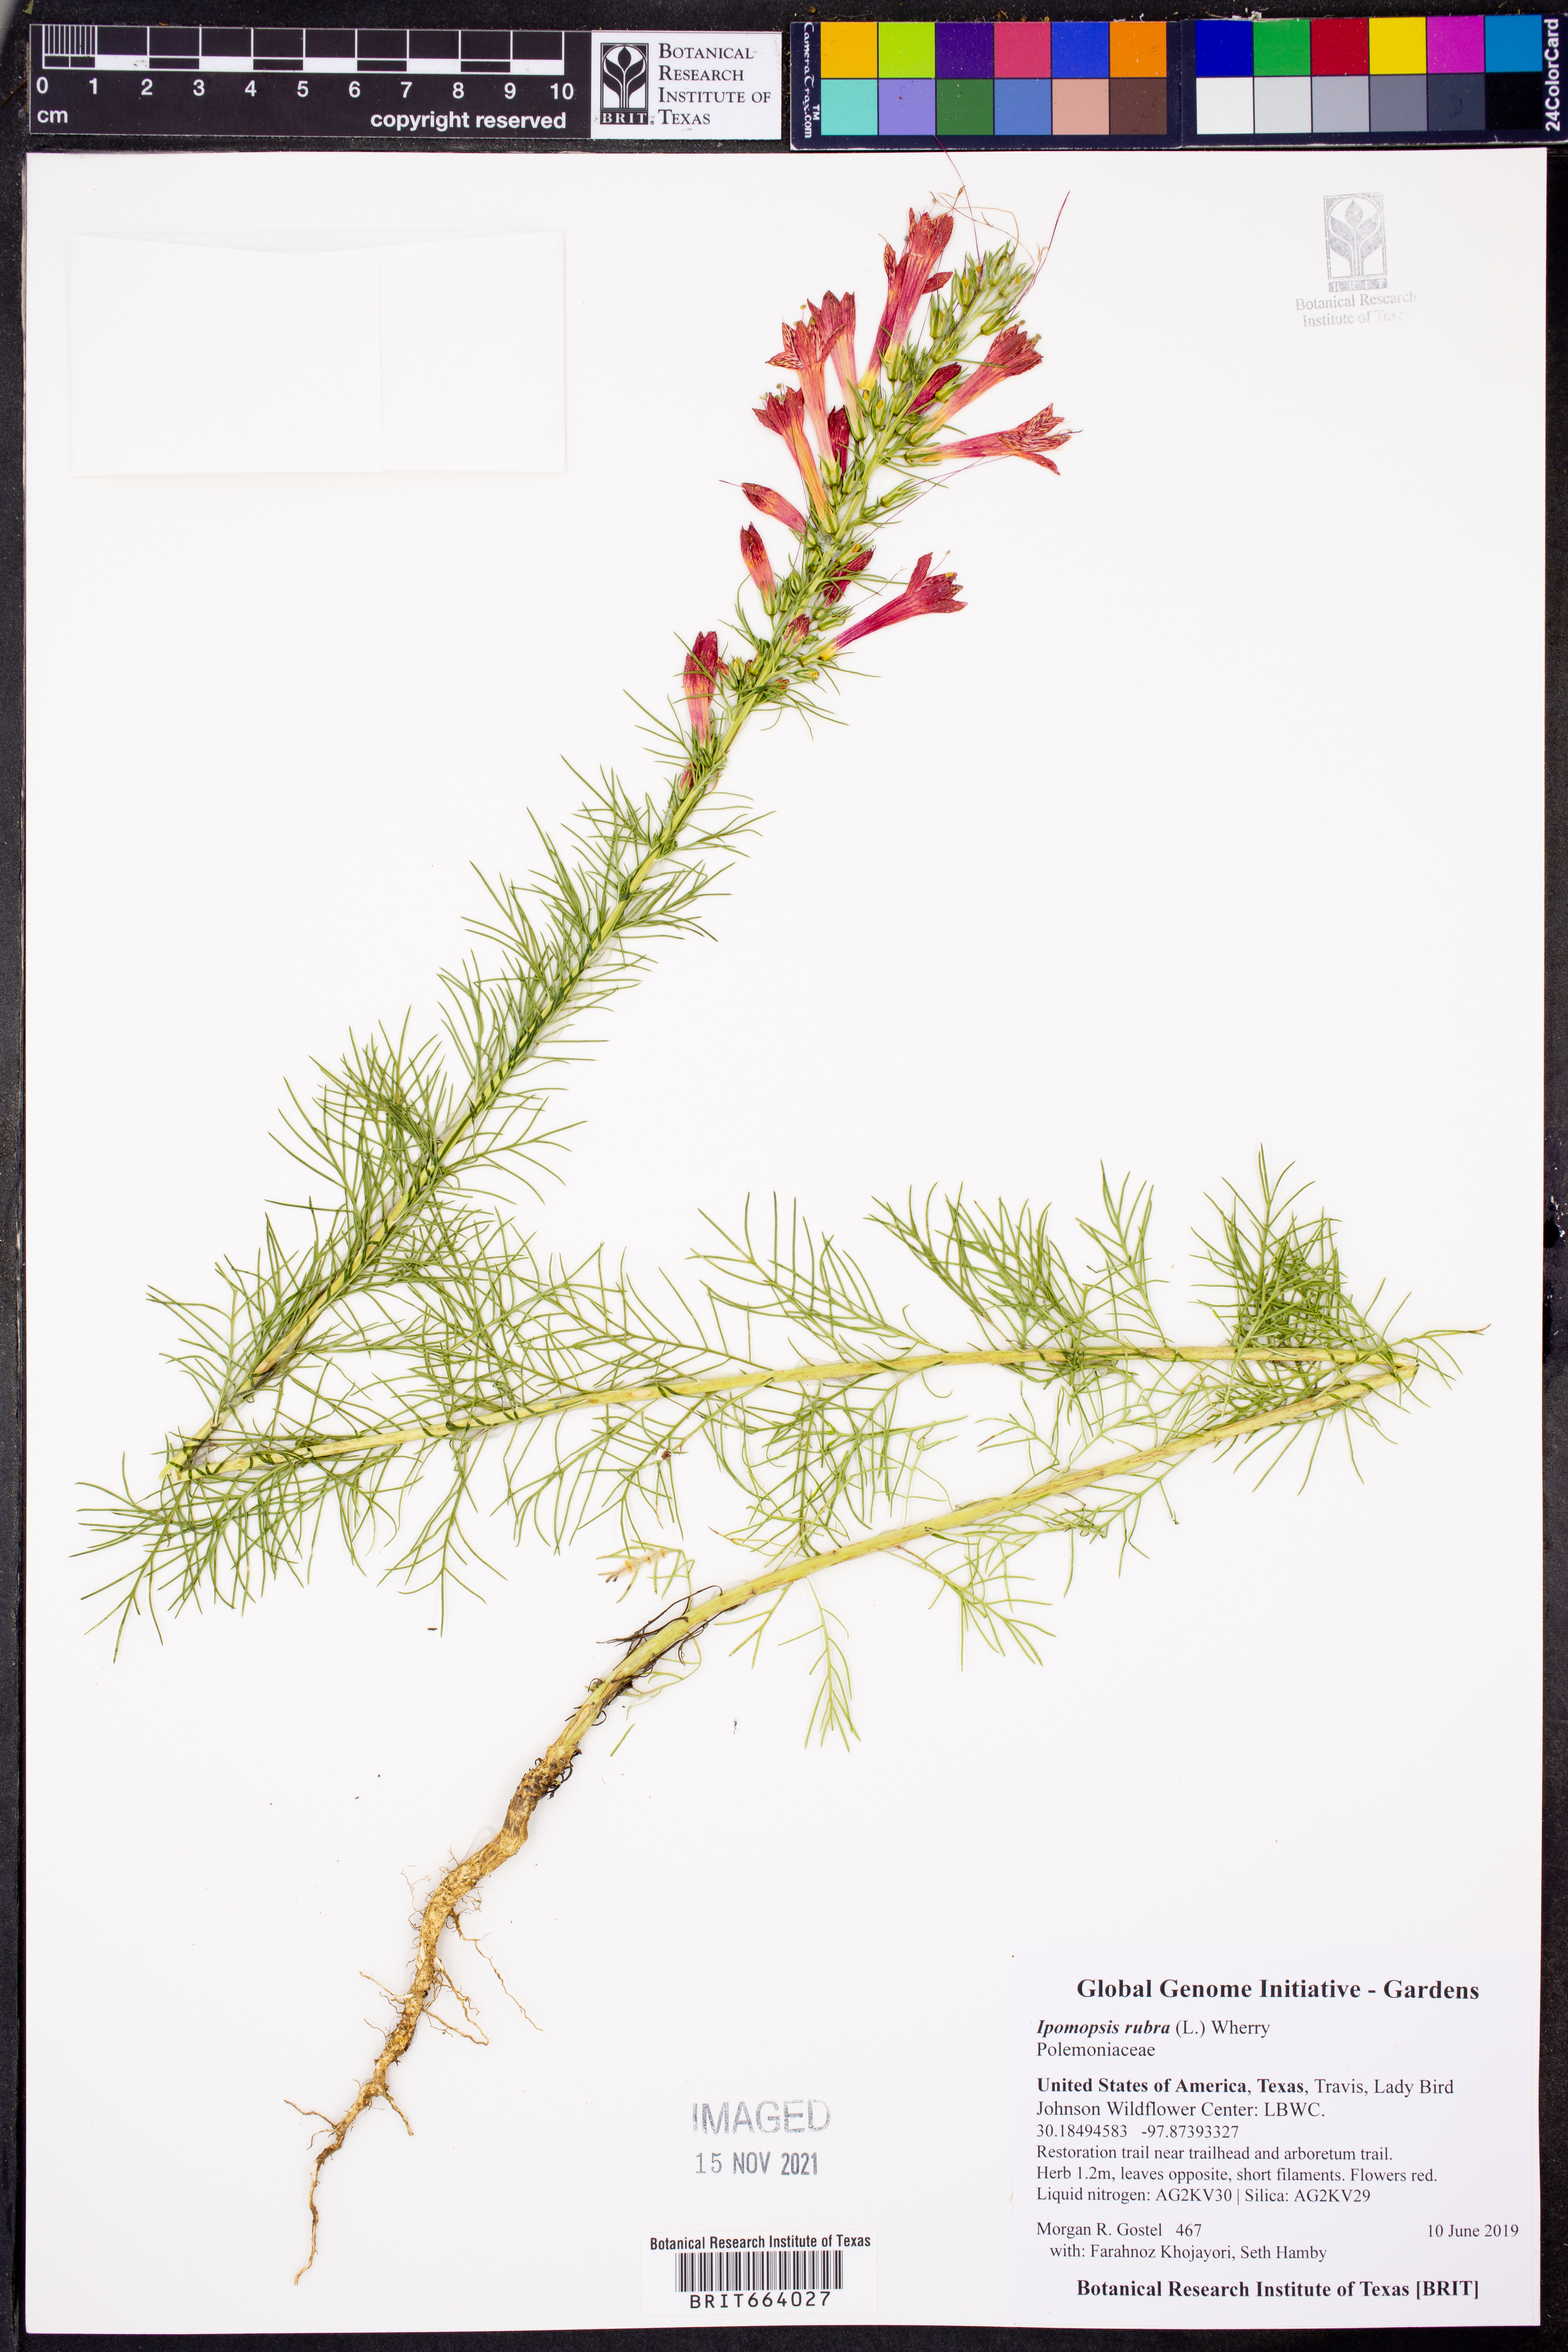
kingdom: Plantae
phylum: Tracheophyta
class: Magnoliopsida
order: Ericales
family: Polemoniaceae
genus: Ipomopsis
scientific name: Ipomopsis rubra
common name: Skyrocket
